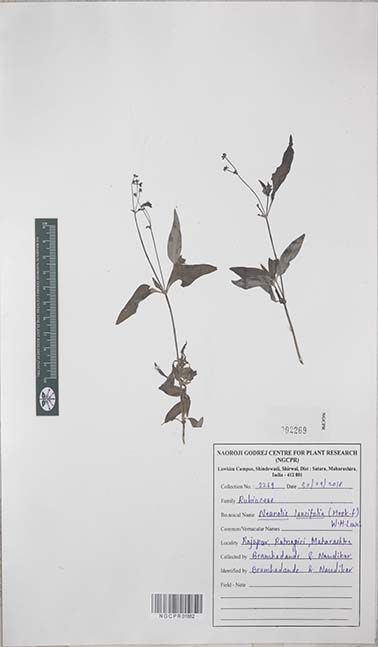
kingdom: Plantae
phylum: Tracheophyta
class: Magnoliopsida
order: Gentianales
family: Rubiaceae
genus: Neanotis
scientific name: Neanotis lancifolia
